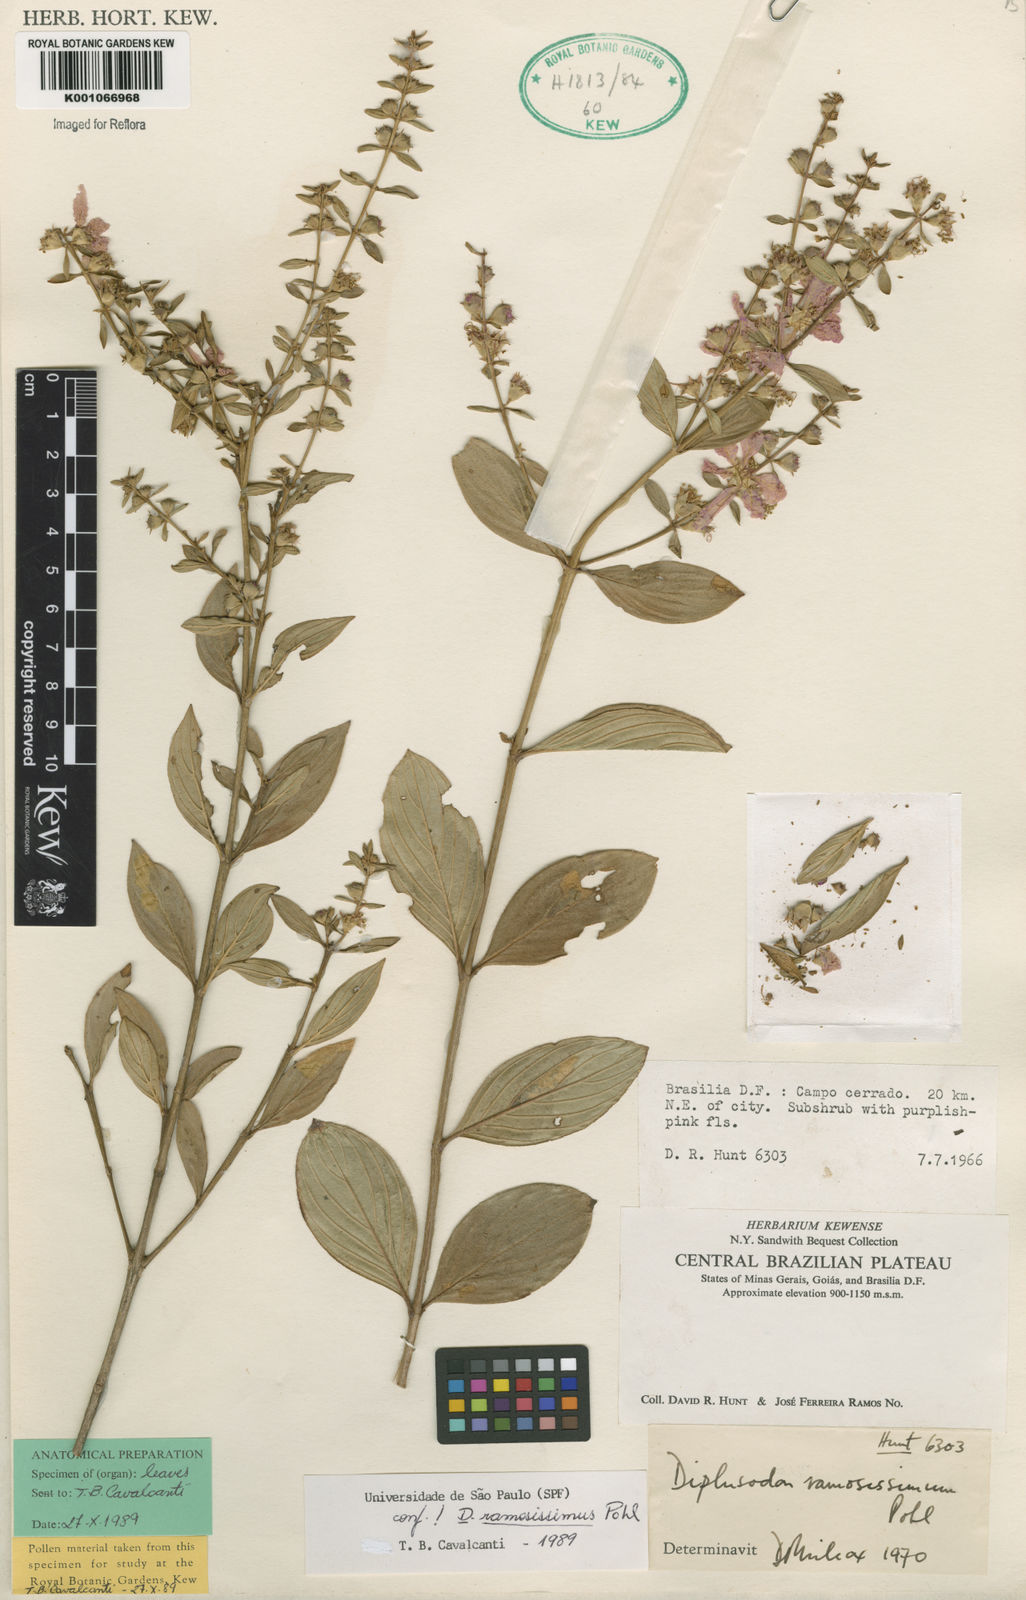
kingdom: Plantae
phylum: Tracheophyta
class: Magnoliopsida
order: Myrtales
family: Lythraceae
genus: Diplusodon
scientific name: Diplusodon ramosissimus
